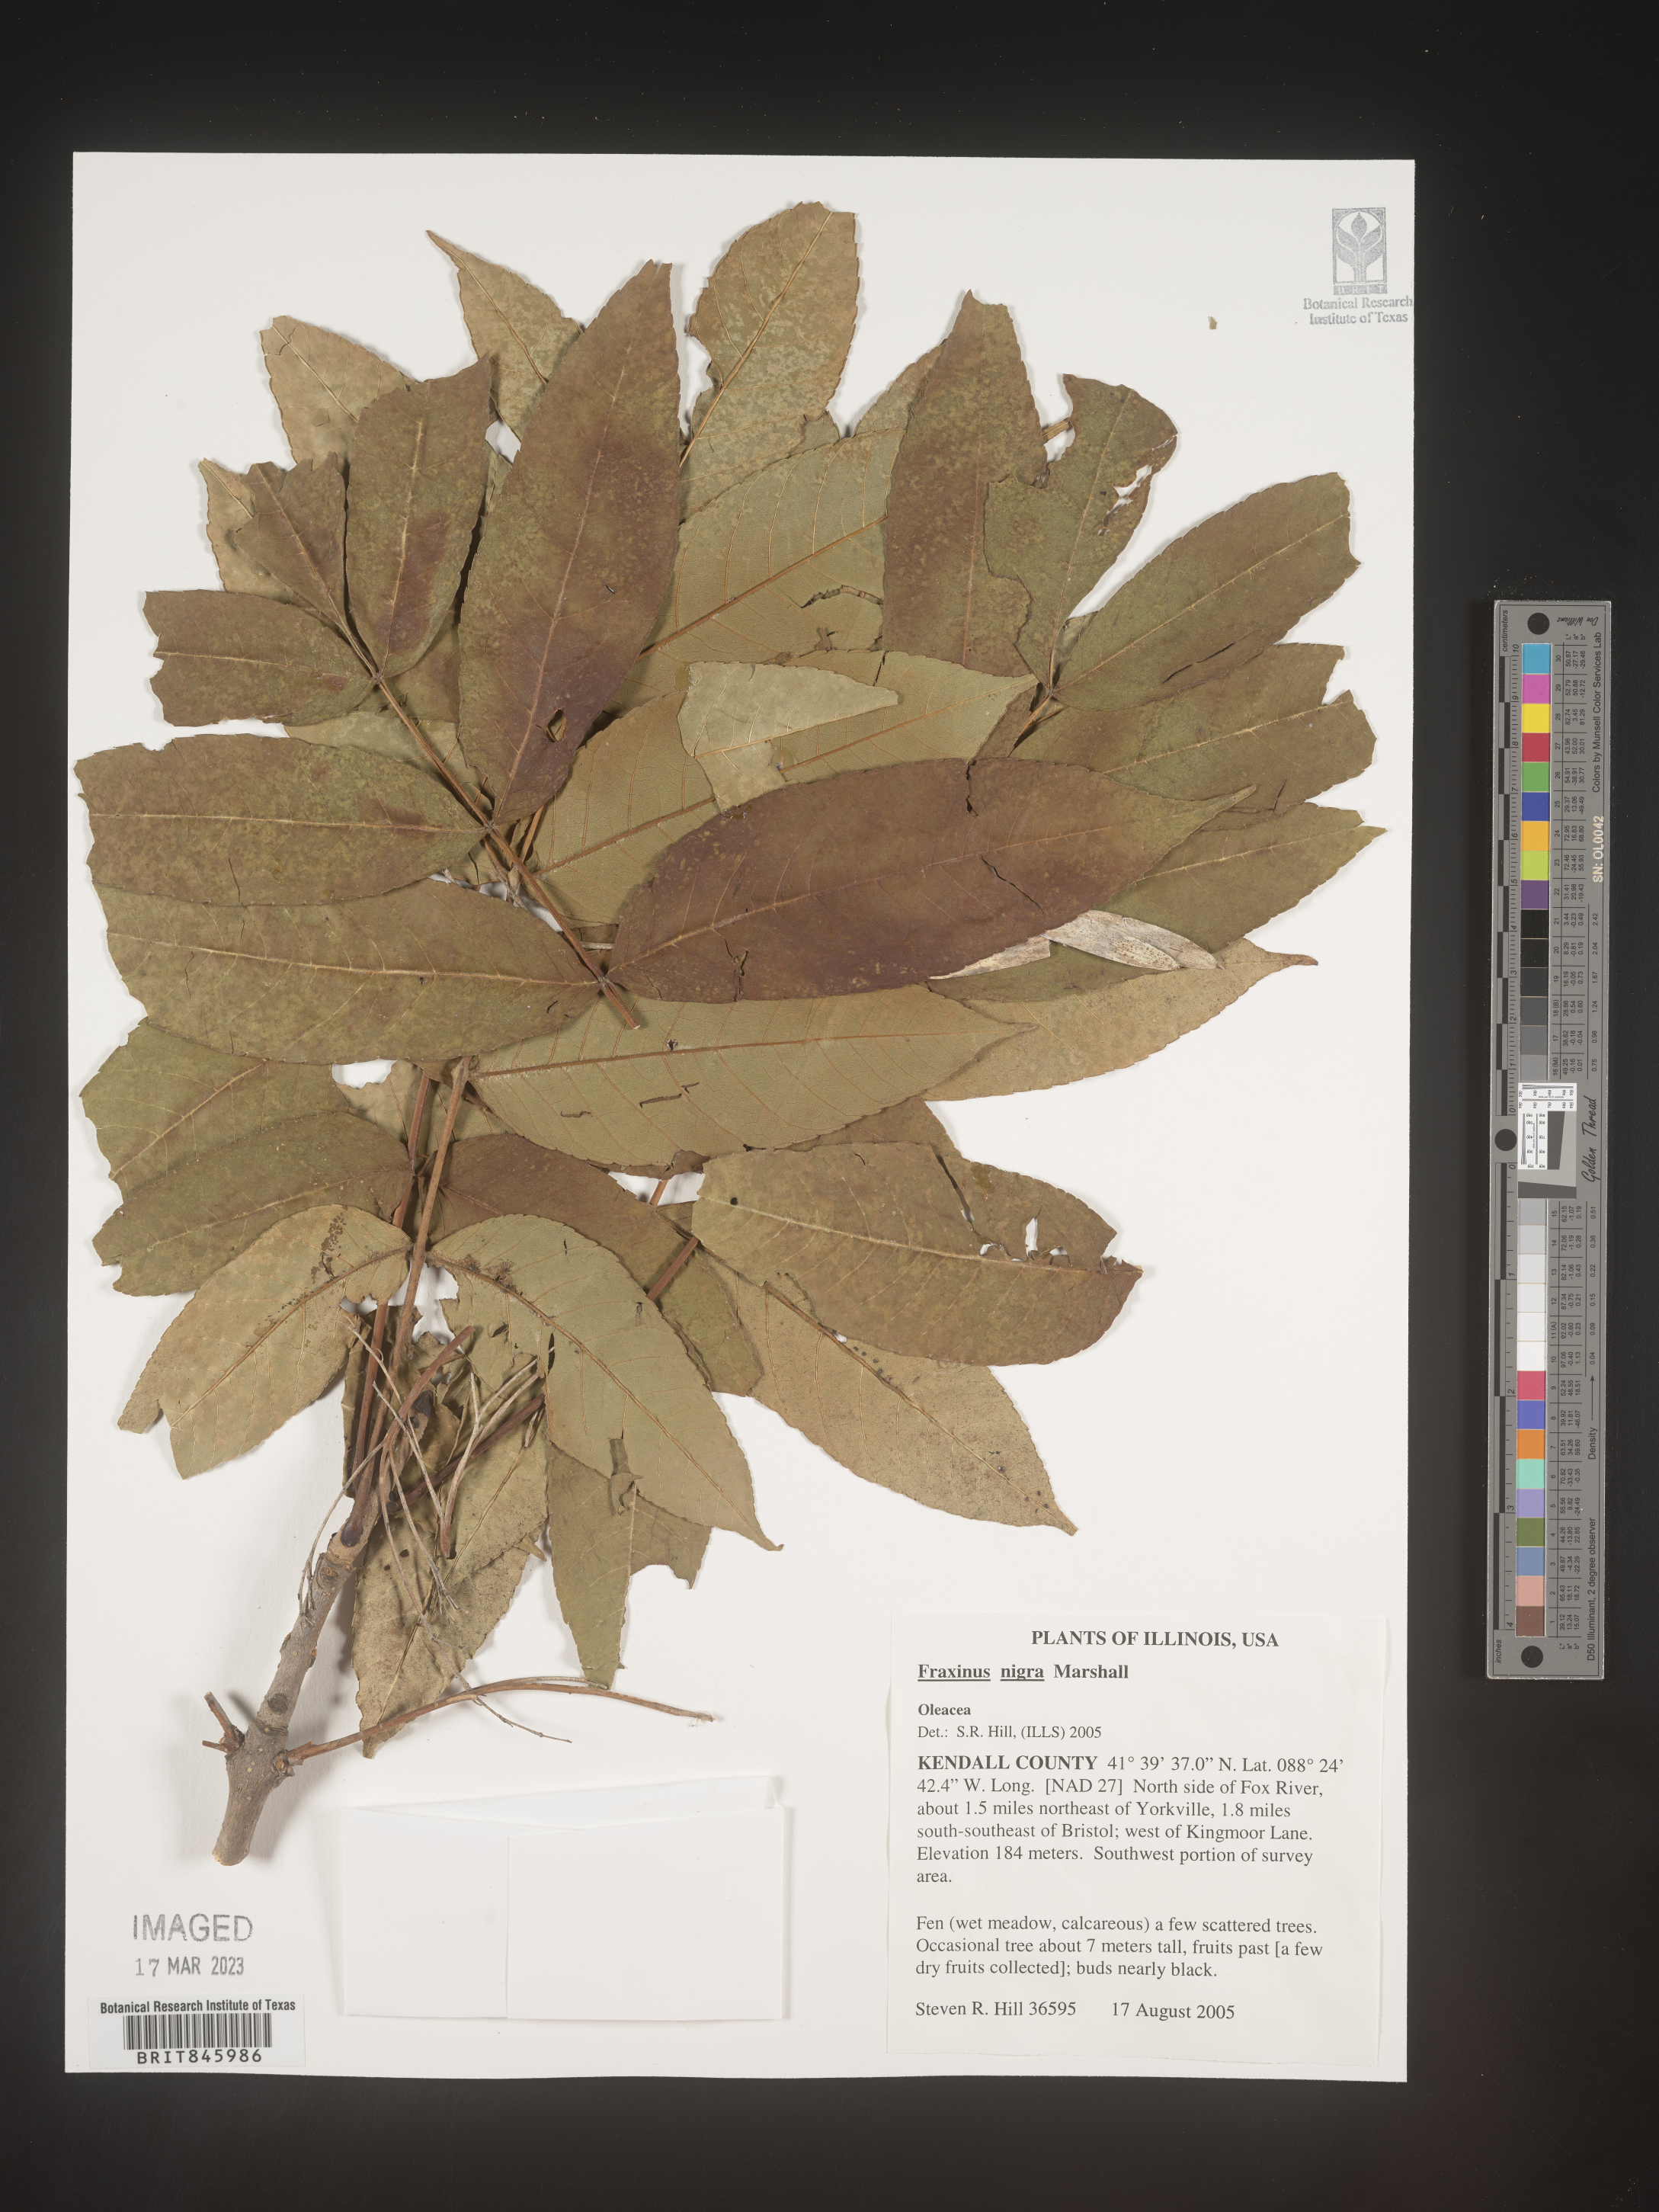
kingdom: Plantae
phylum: Tracheophyta
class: Magnoliopsida
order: Lamiales
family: Oleaceae
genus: Fraxinus
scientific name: Fraxinus nigra
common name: Black ash
